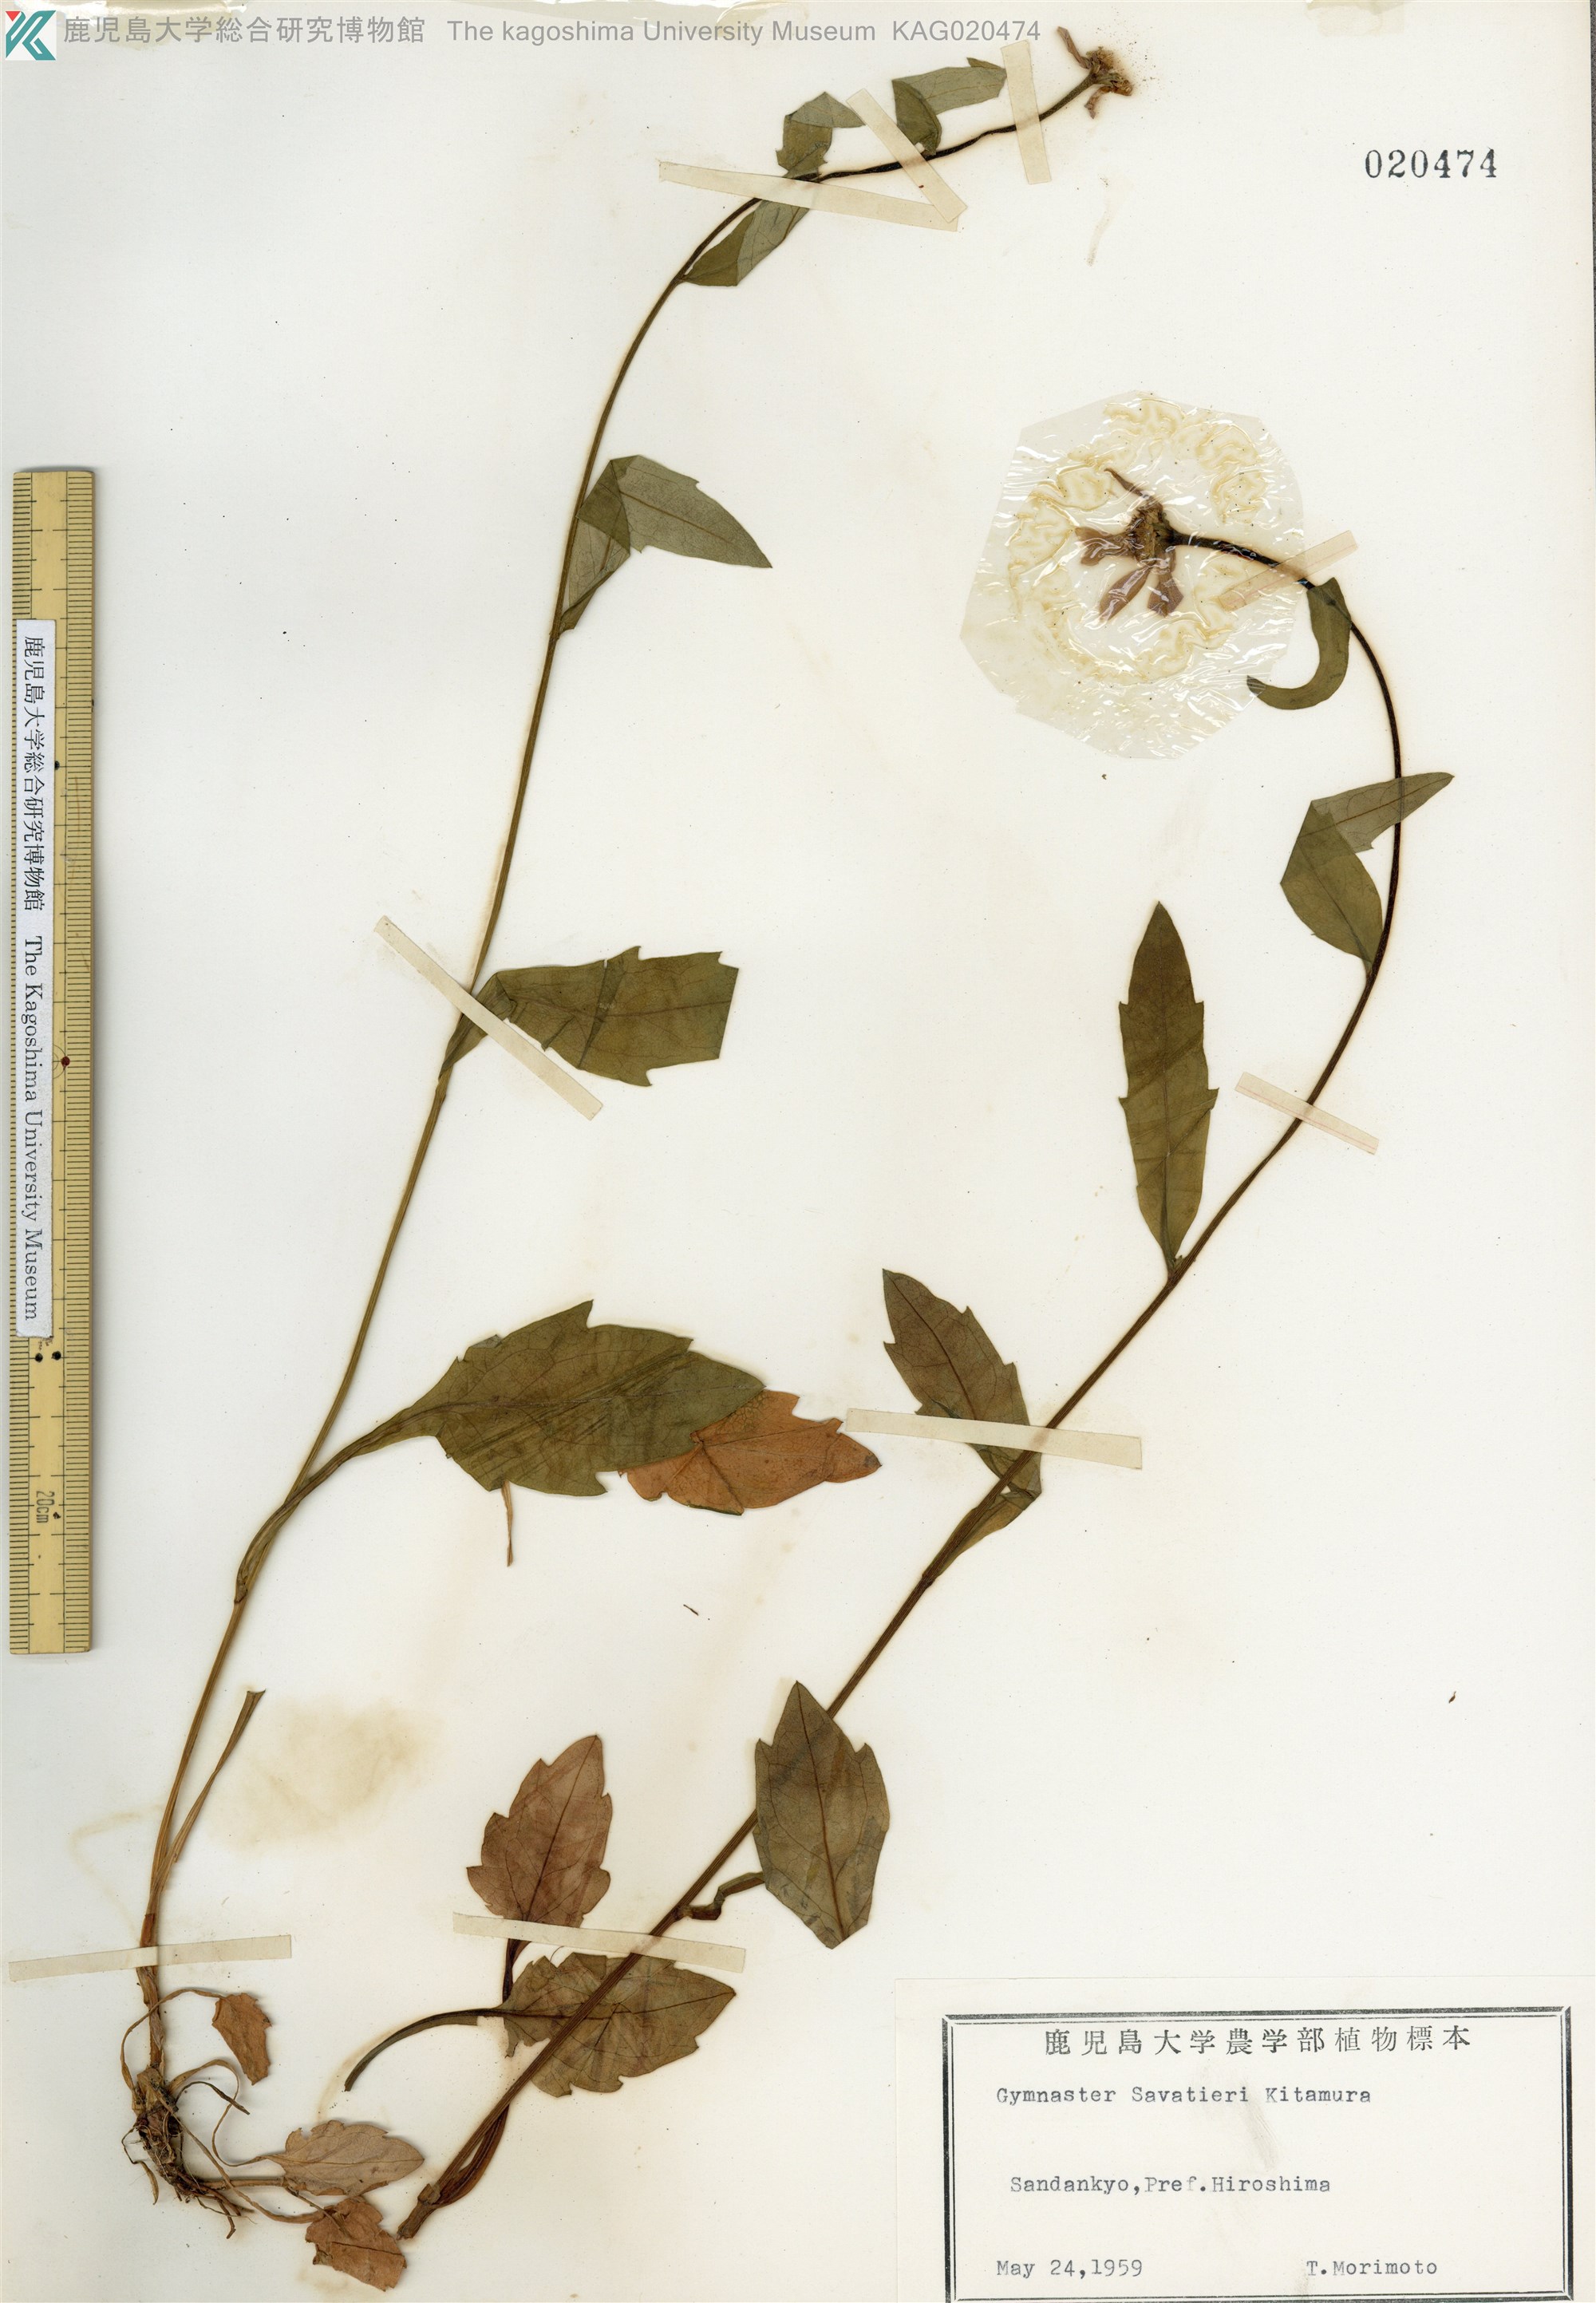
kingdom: Plantae
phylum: Tracheophyta
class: Magnoliopsida
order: Asterales
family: Asteraceae
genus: Miyamayomena
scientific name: Miyamayomena savatieri
